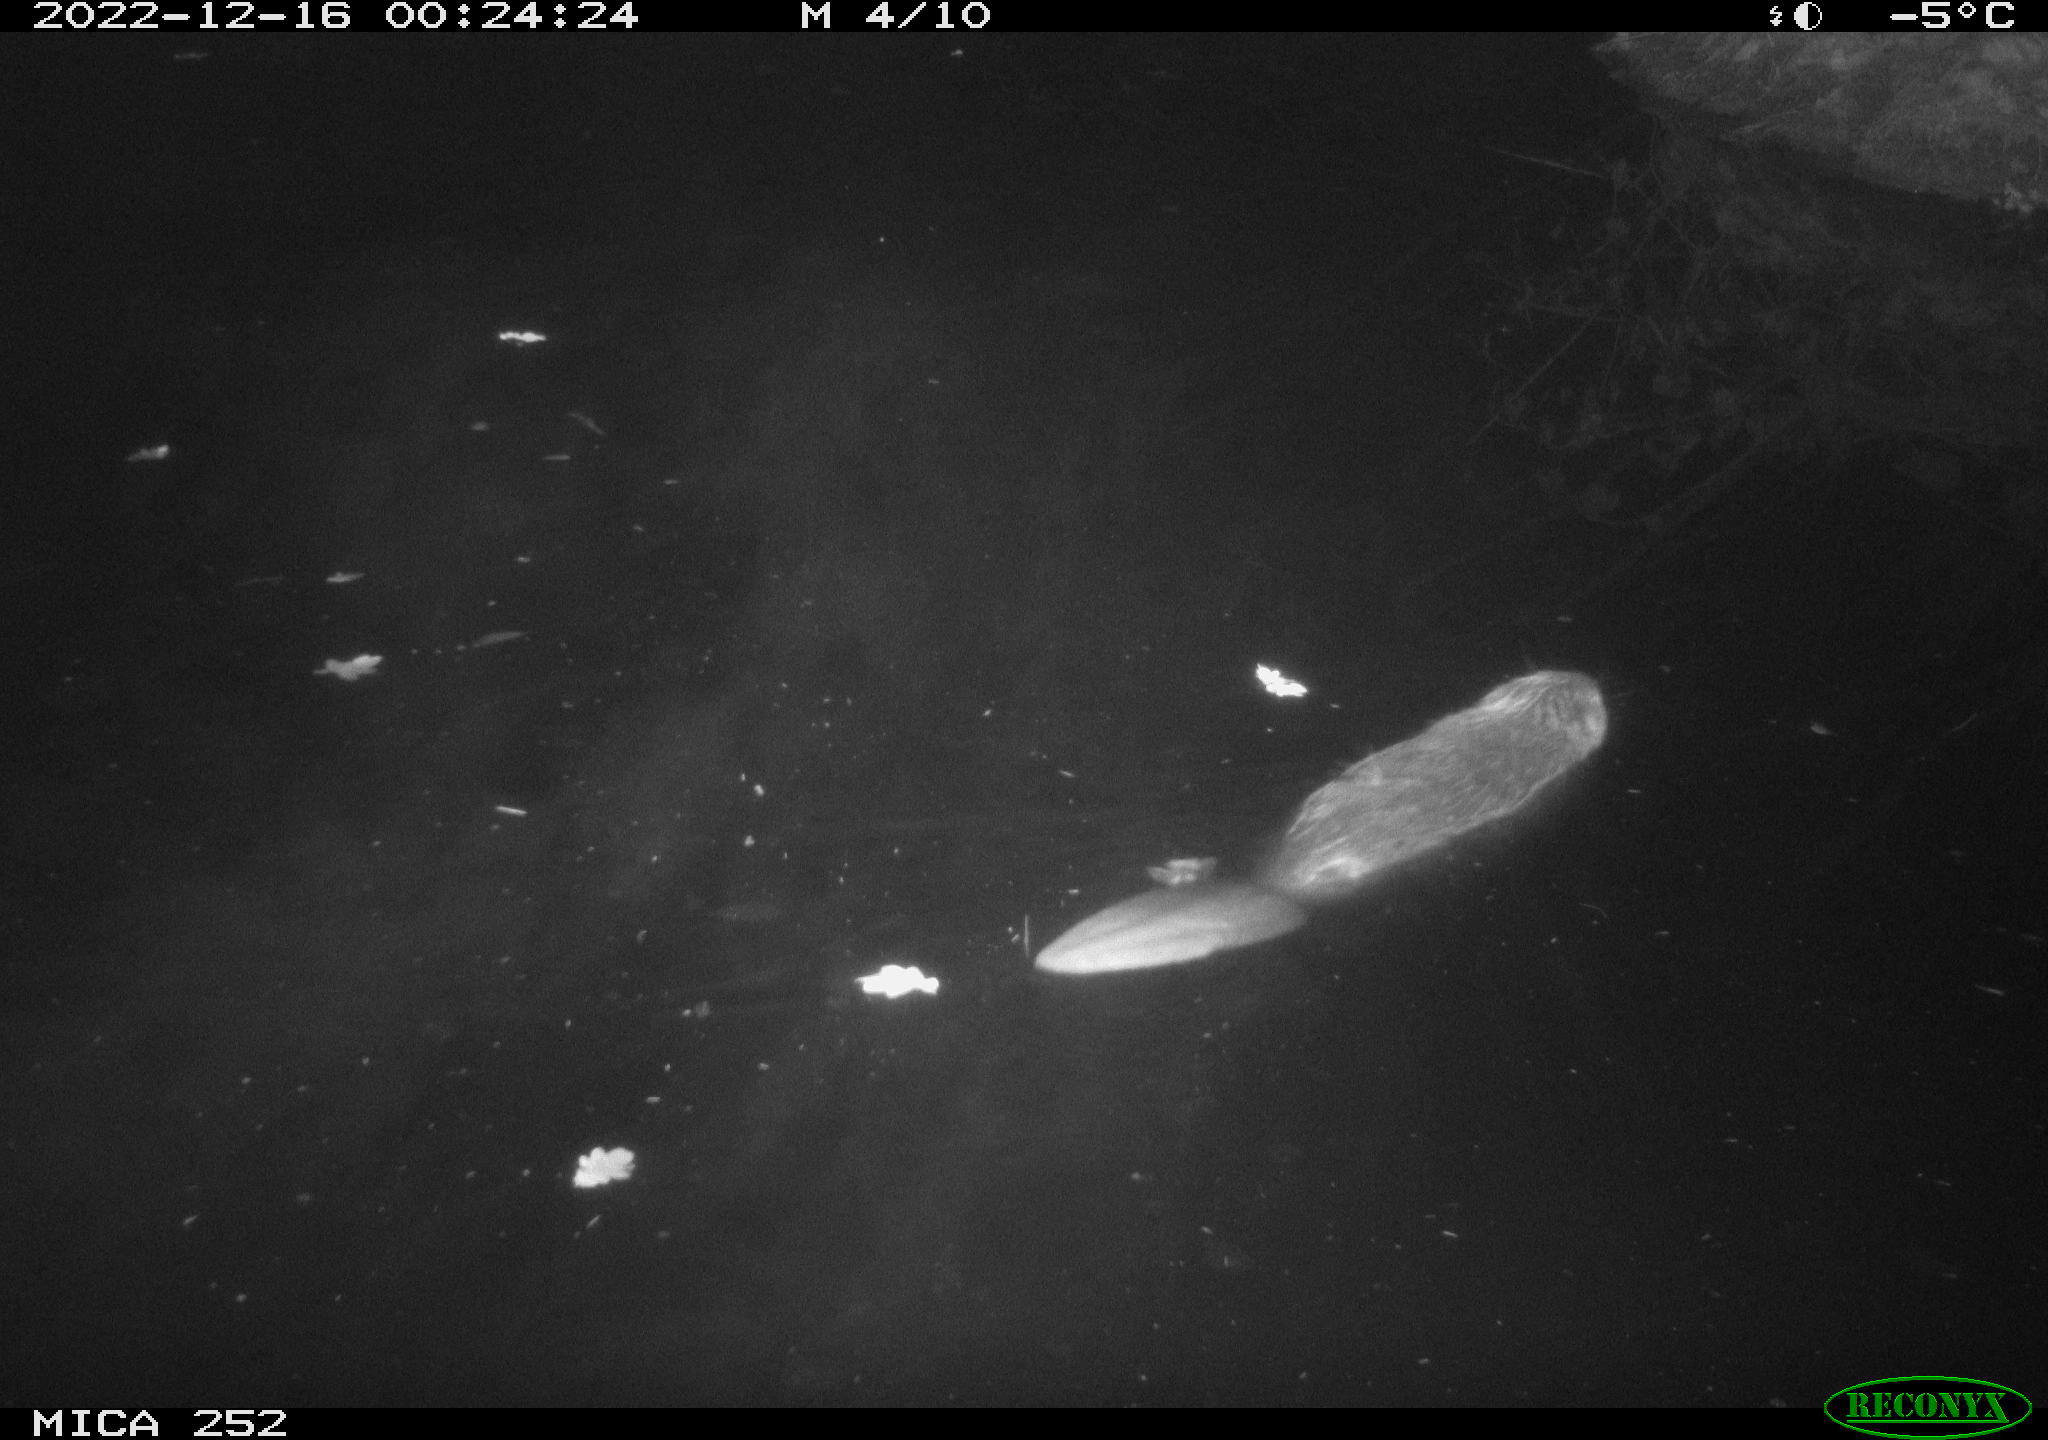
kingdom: Animalia
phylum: Chordata
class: Mammalia
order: Rodentia
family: Castoridae
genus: Castor
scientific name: Castor fiber
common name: Eurasian beaver
